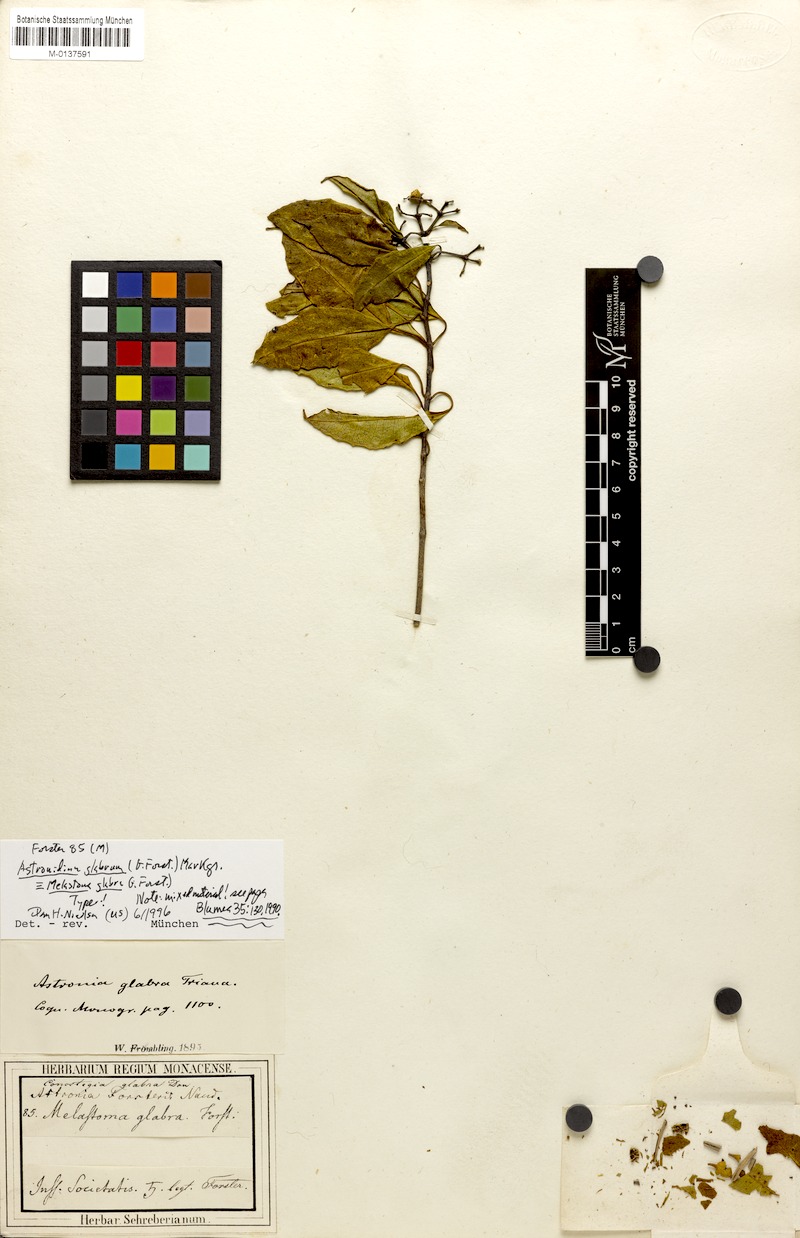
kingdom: Plantae
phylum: Tracheophyta
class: Magnoliopsida
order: Myrtales
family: Melastomataceae
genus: Astronidium
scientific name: Astronidium glabrum
